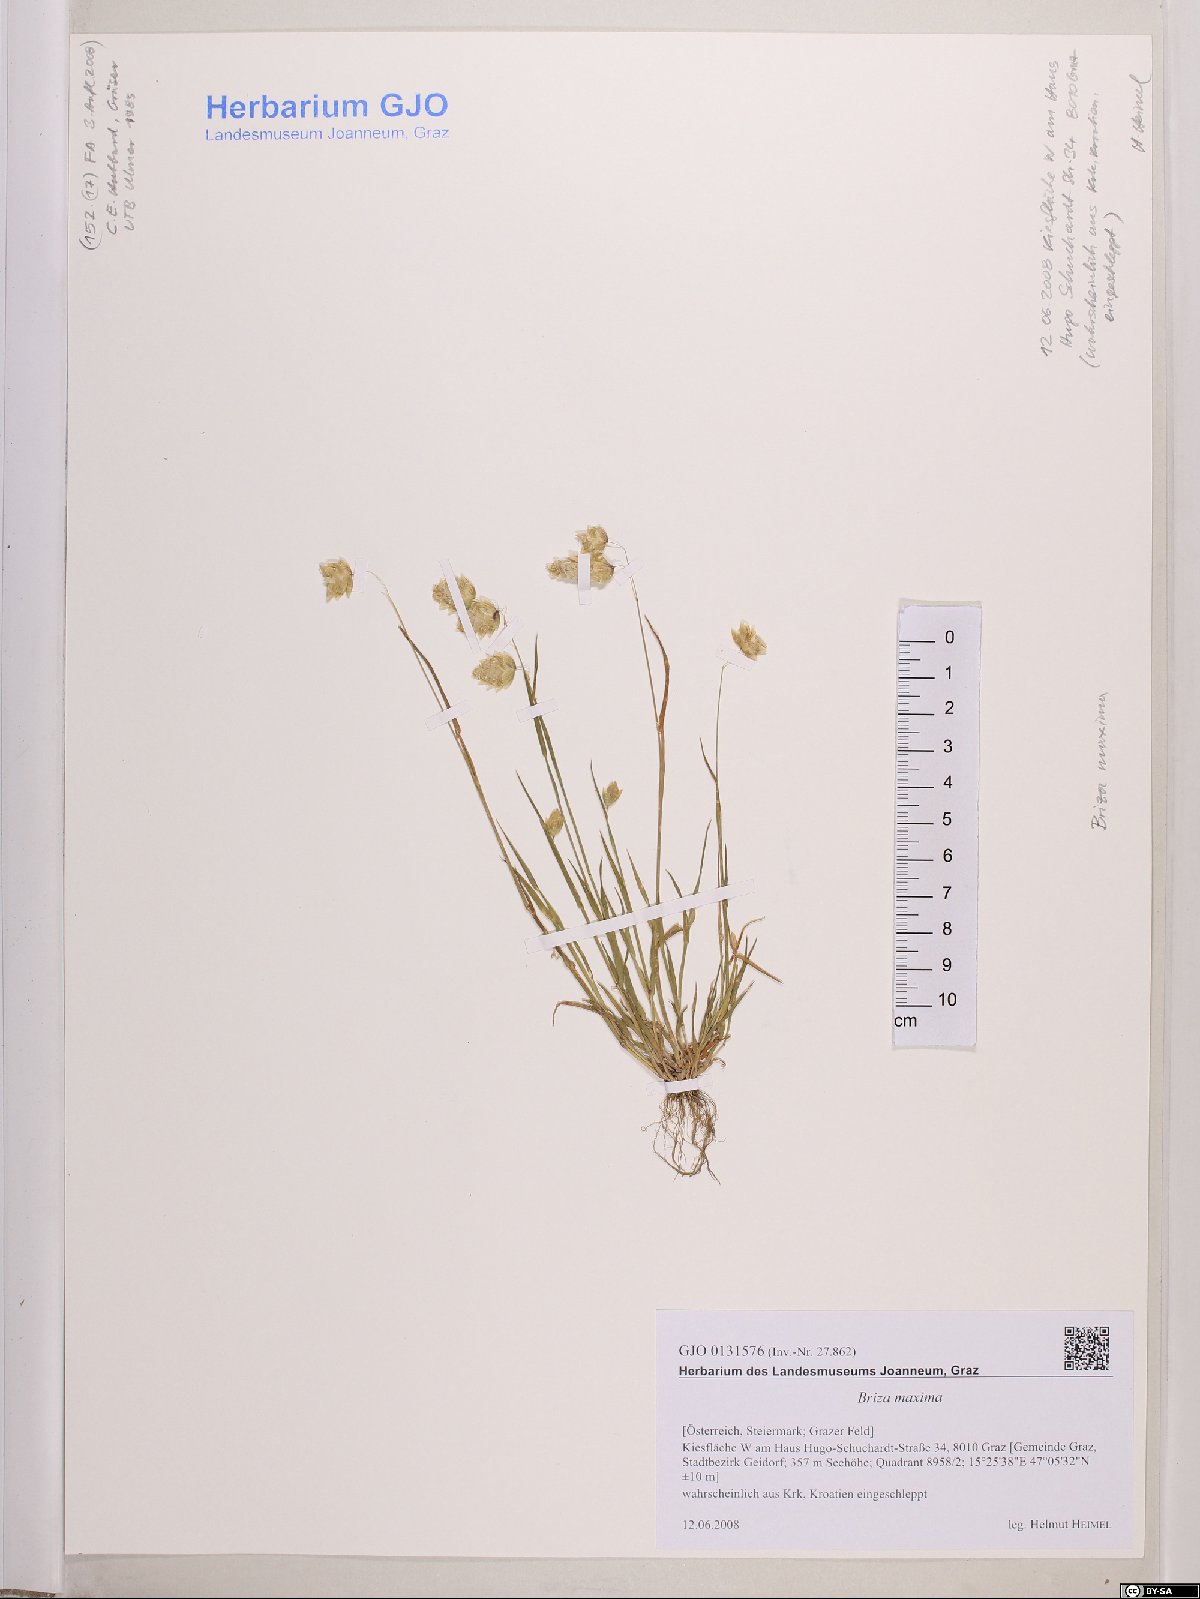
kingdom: Plantae
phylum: Tracheophyta
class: Liliopsida
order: Poales
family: Poaceae
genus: Briza
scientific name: Briza maxima
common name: Big quakinggrass
